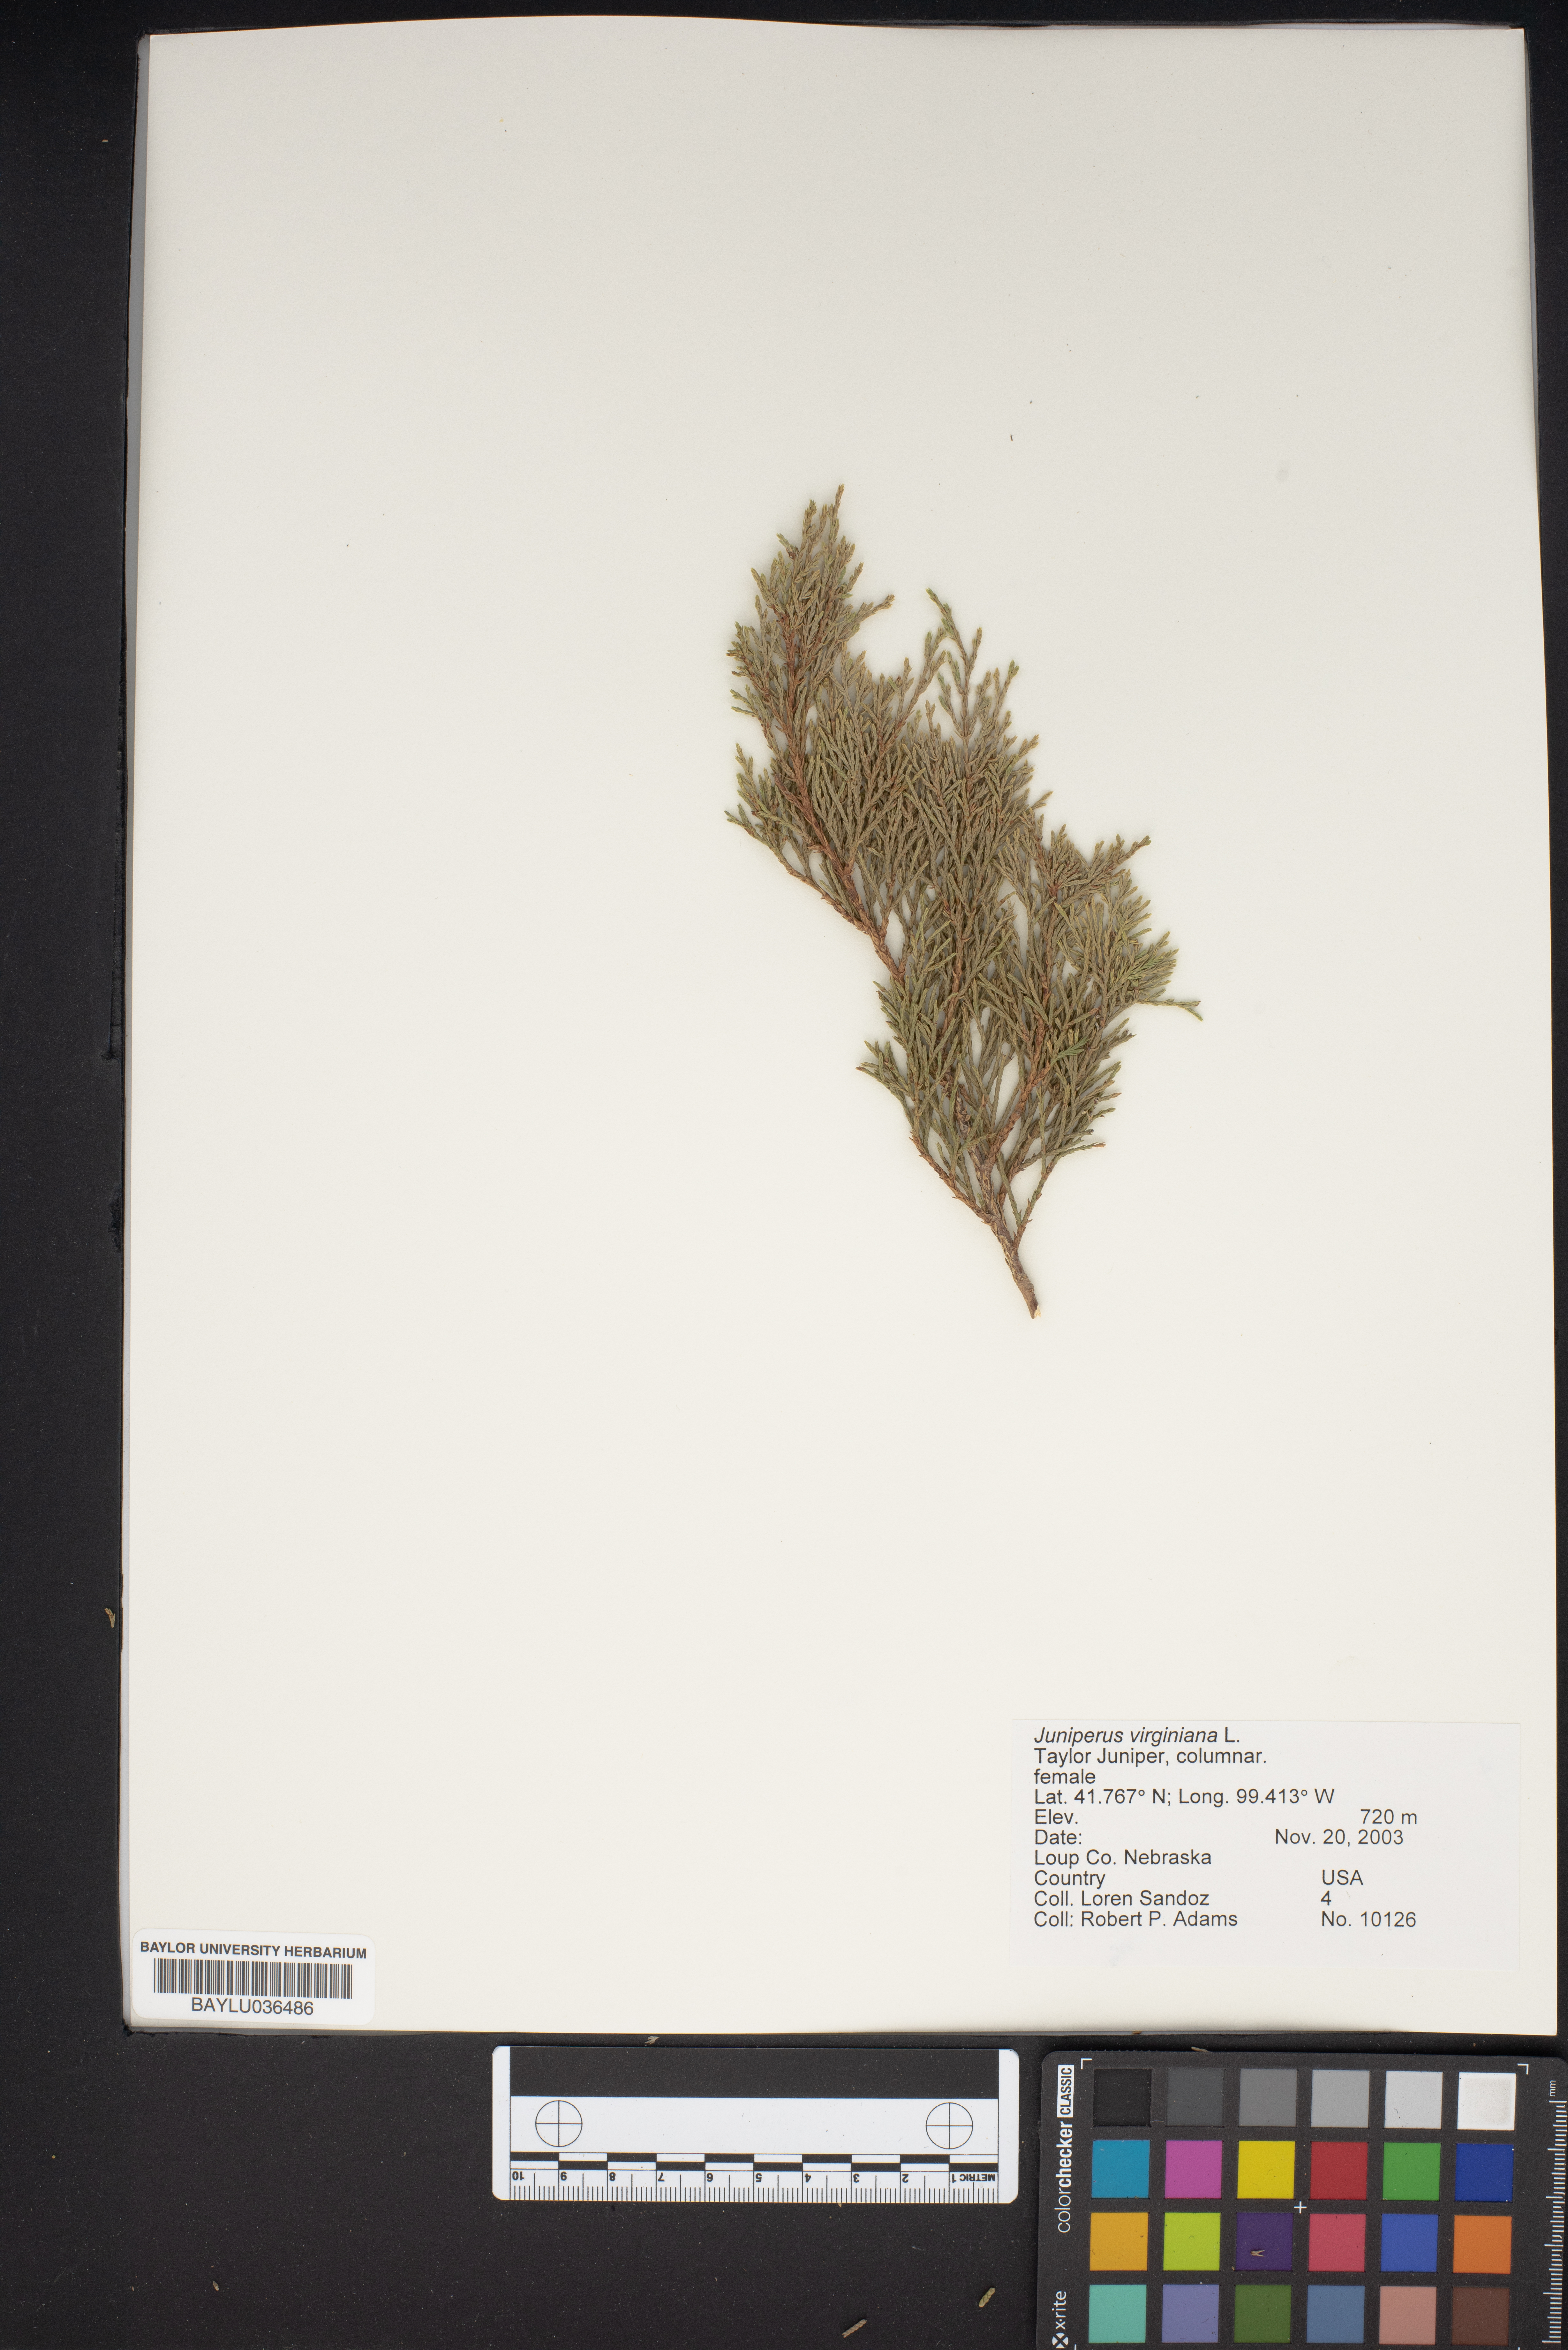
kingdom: Plantae
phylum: Tracheophyta
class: Pinopsida
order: Pinales
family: Cupressaceae
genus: Juniperus
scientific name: Juniperus virginiana
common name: Red juniper
